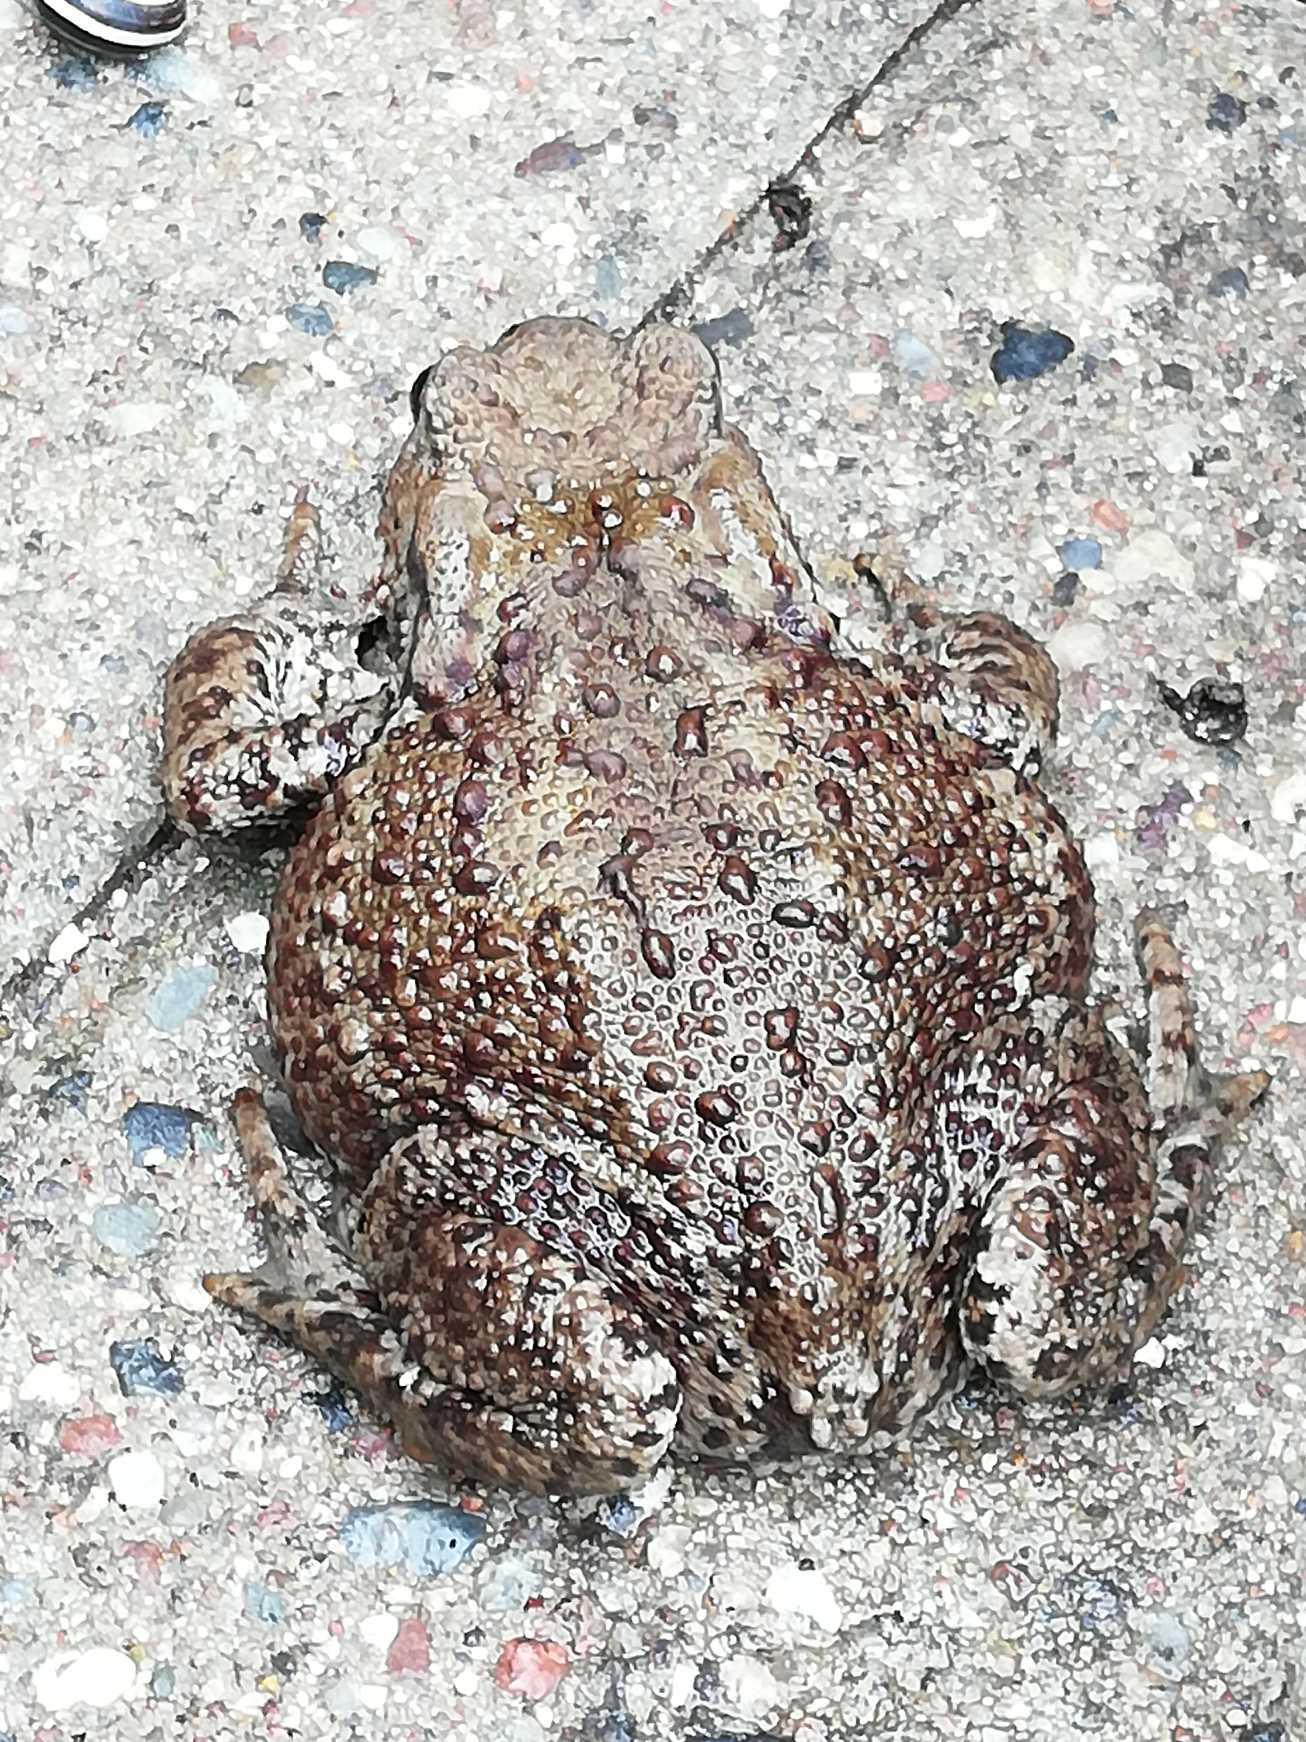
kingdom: Animalia
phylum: Chordata
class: Amphibia
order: Anura
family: Bufonidae
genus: Bufo
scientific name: Bufo bufo
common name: Skrubtudse
